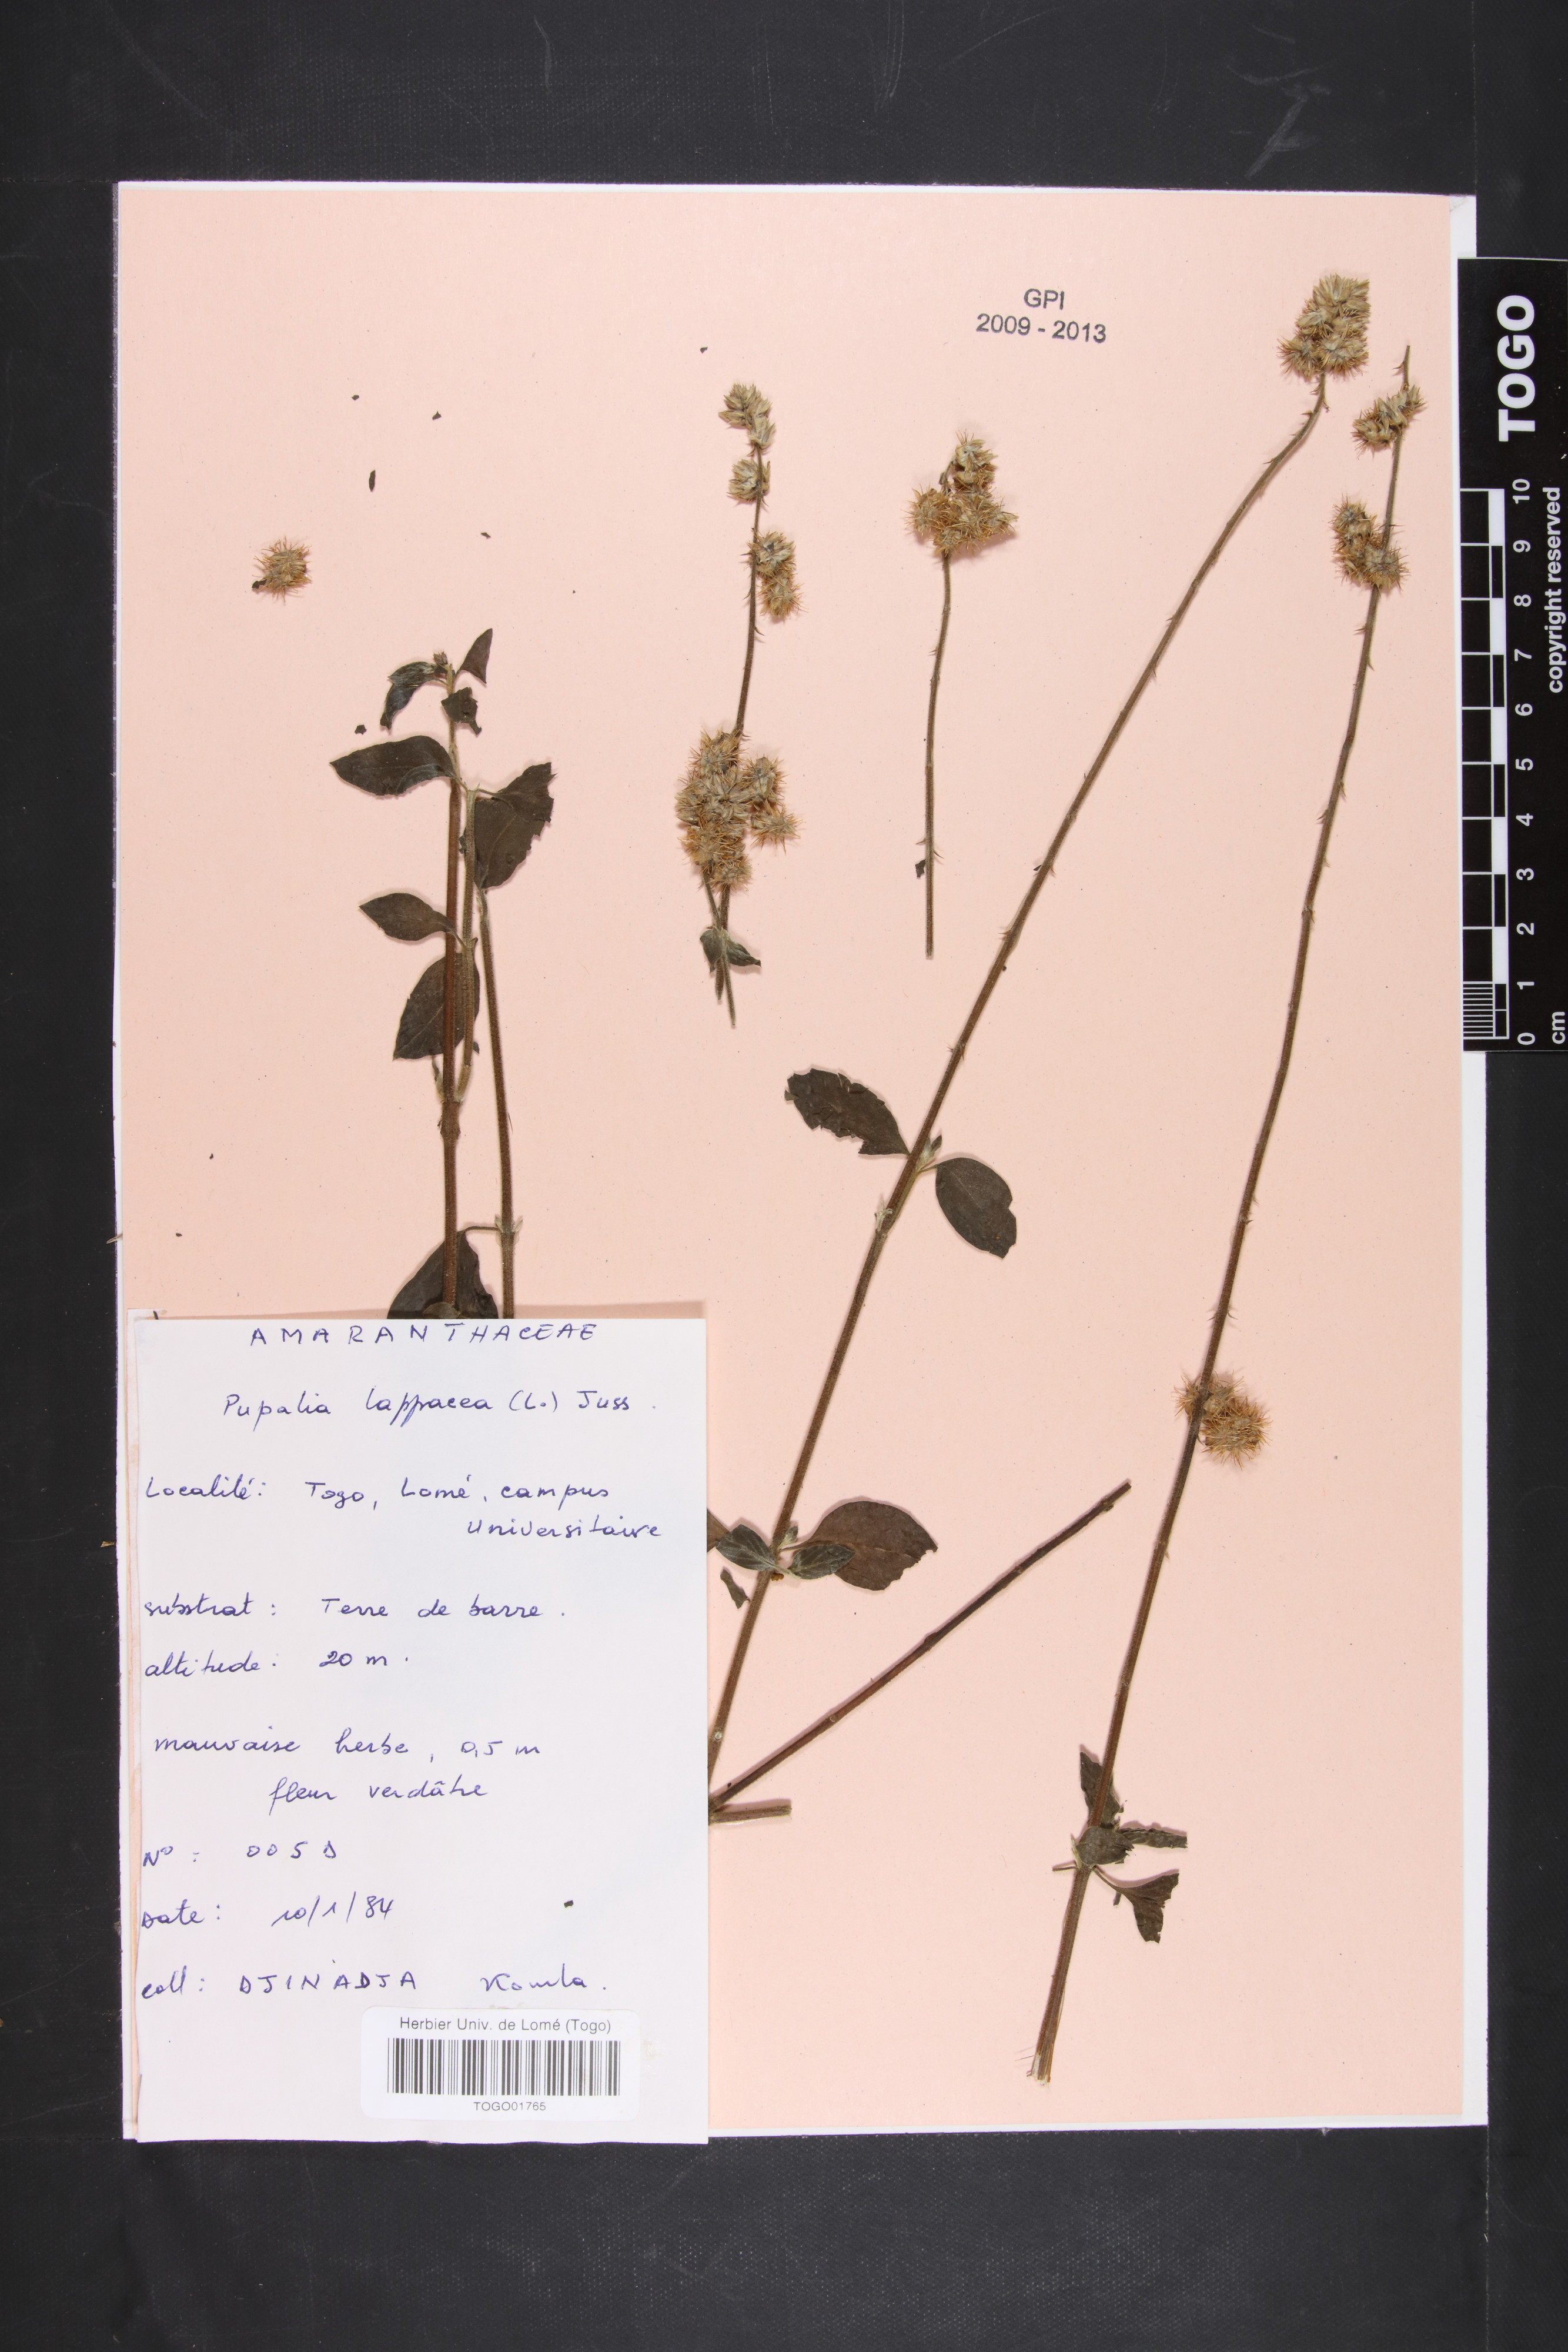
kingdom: Plantae
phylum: Tracheophyta
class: Magnoliopsida
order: Caryophyllales
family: Amaranthaceae
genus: Pupalia
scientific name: Pupalia lappacea
